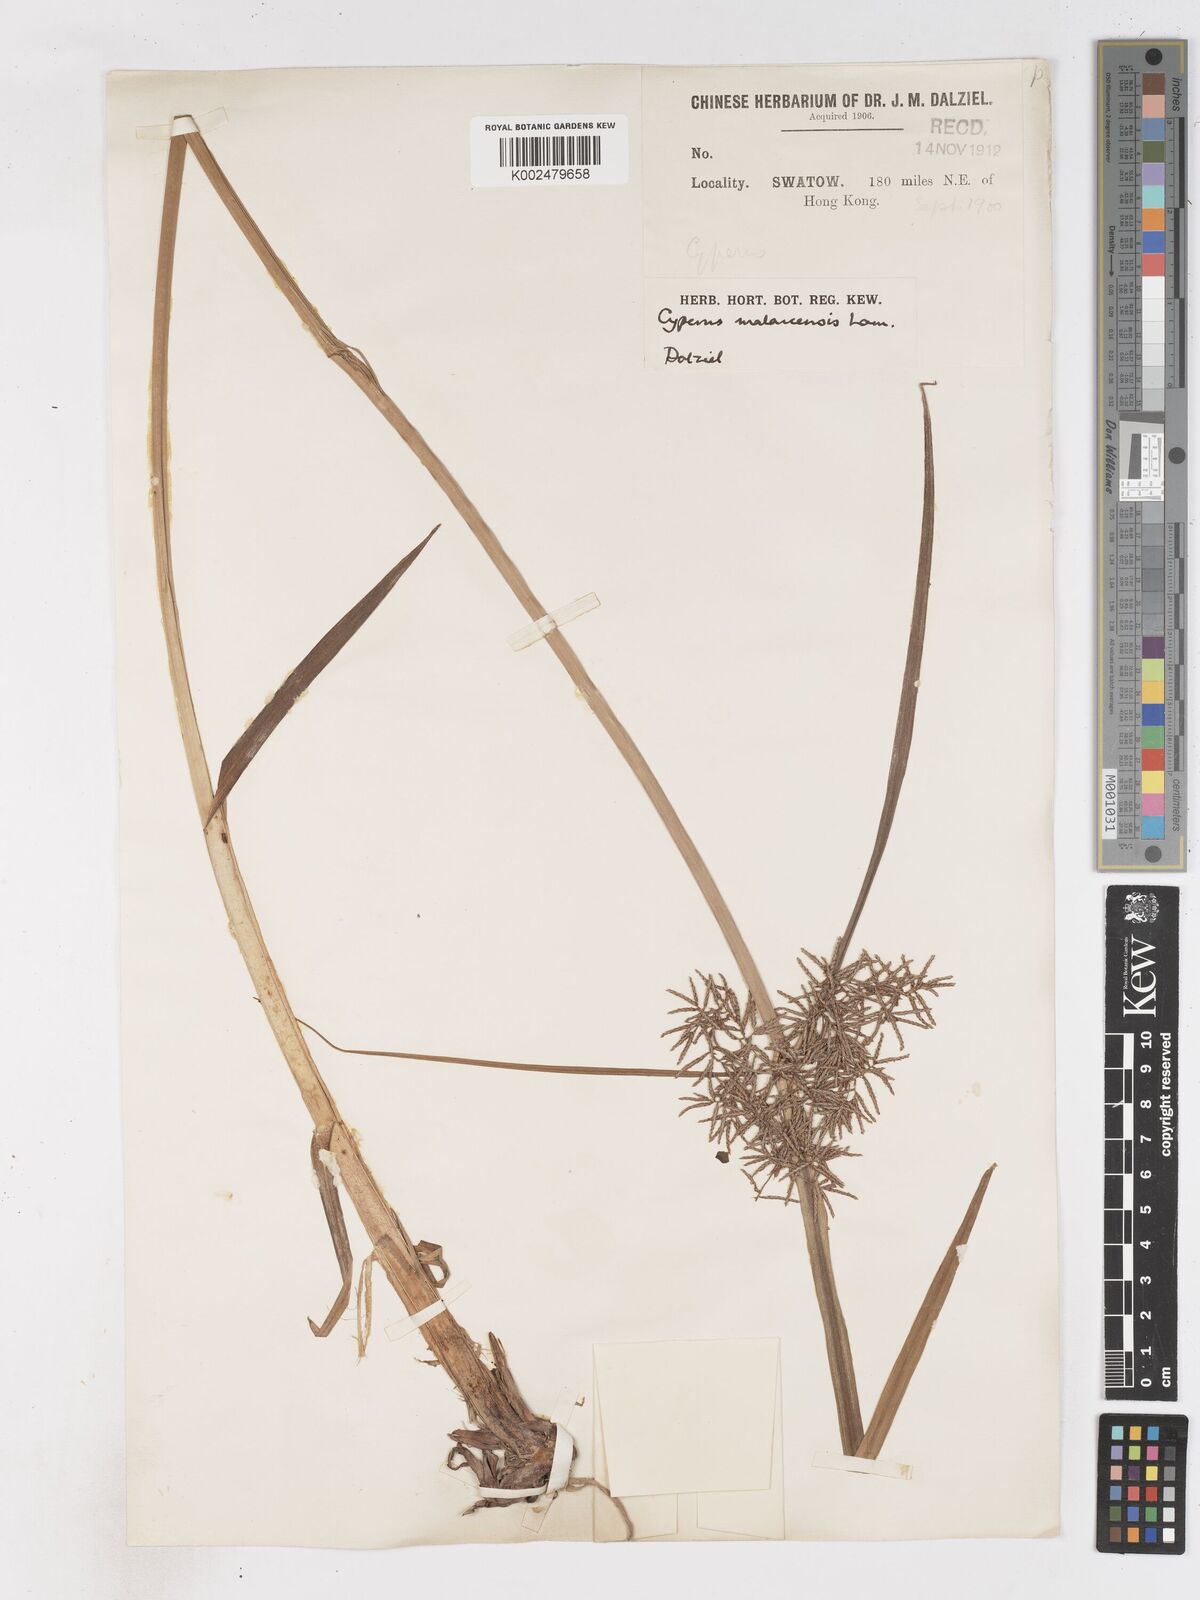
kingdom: Plantae
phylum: Tracheophyta
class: Liliopsida
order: Poales
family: Cyperaceae
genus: Cyperus
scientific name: Cyperus malaccensis
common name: Shichito matgrass
